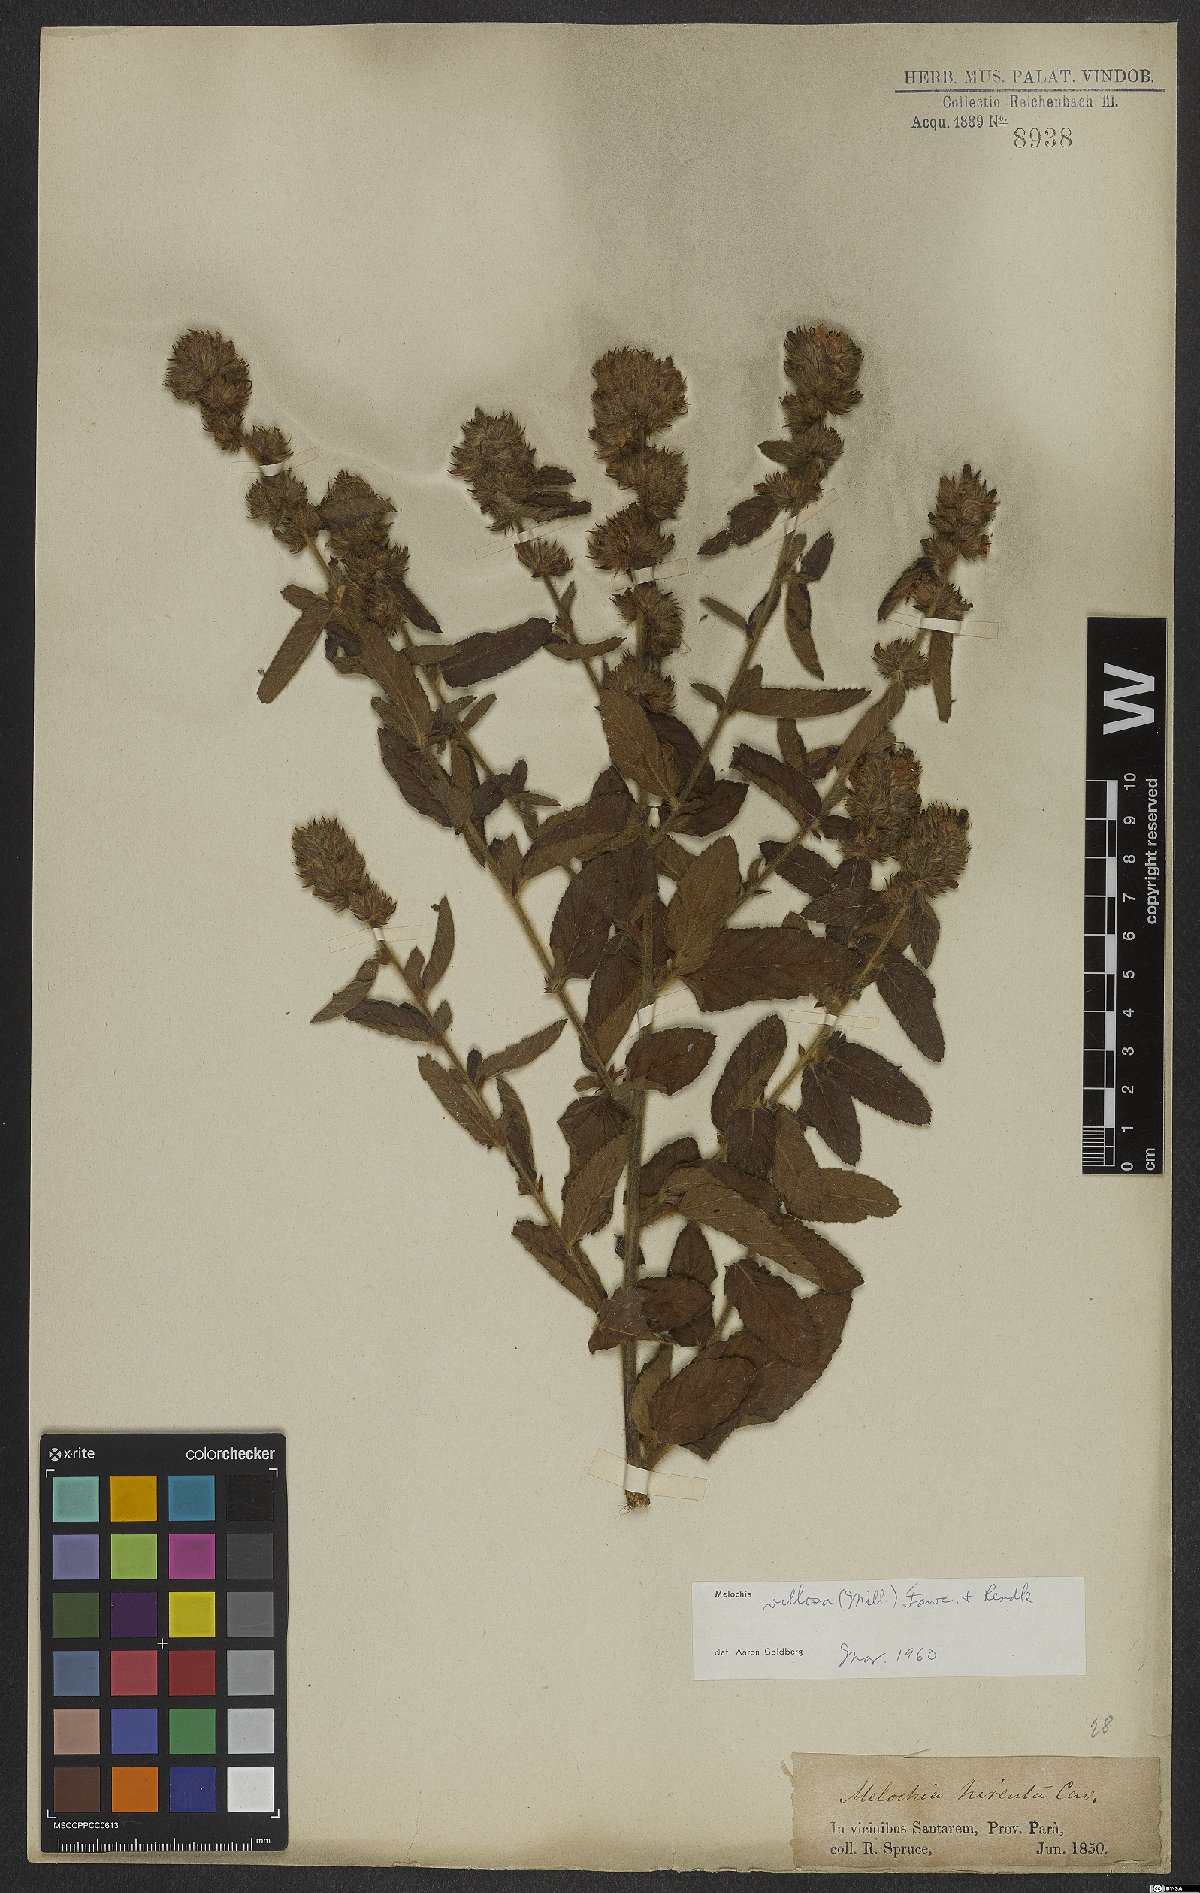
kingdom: Plantae
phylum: Tracheophyta
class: Magnoliopsida
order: Malvales
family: Malvaceae
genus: Melochia
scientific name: Melochia spicata
